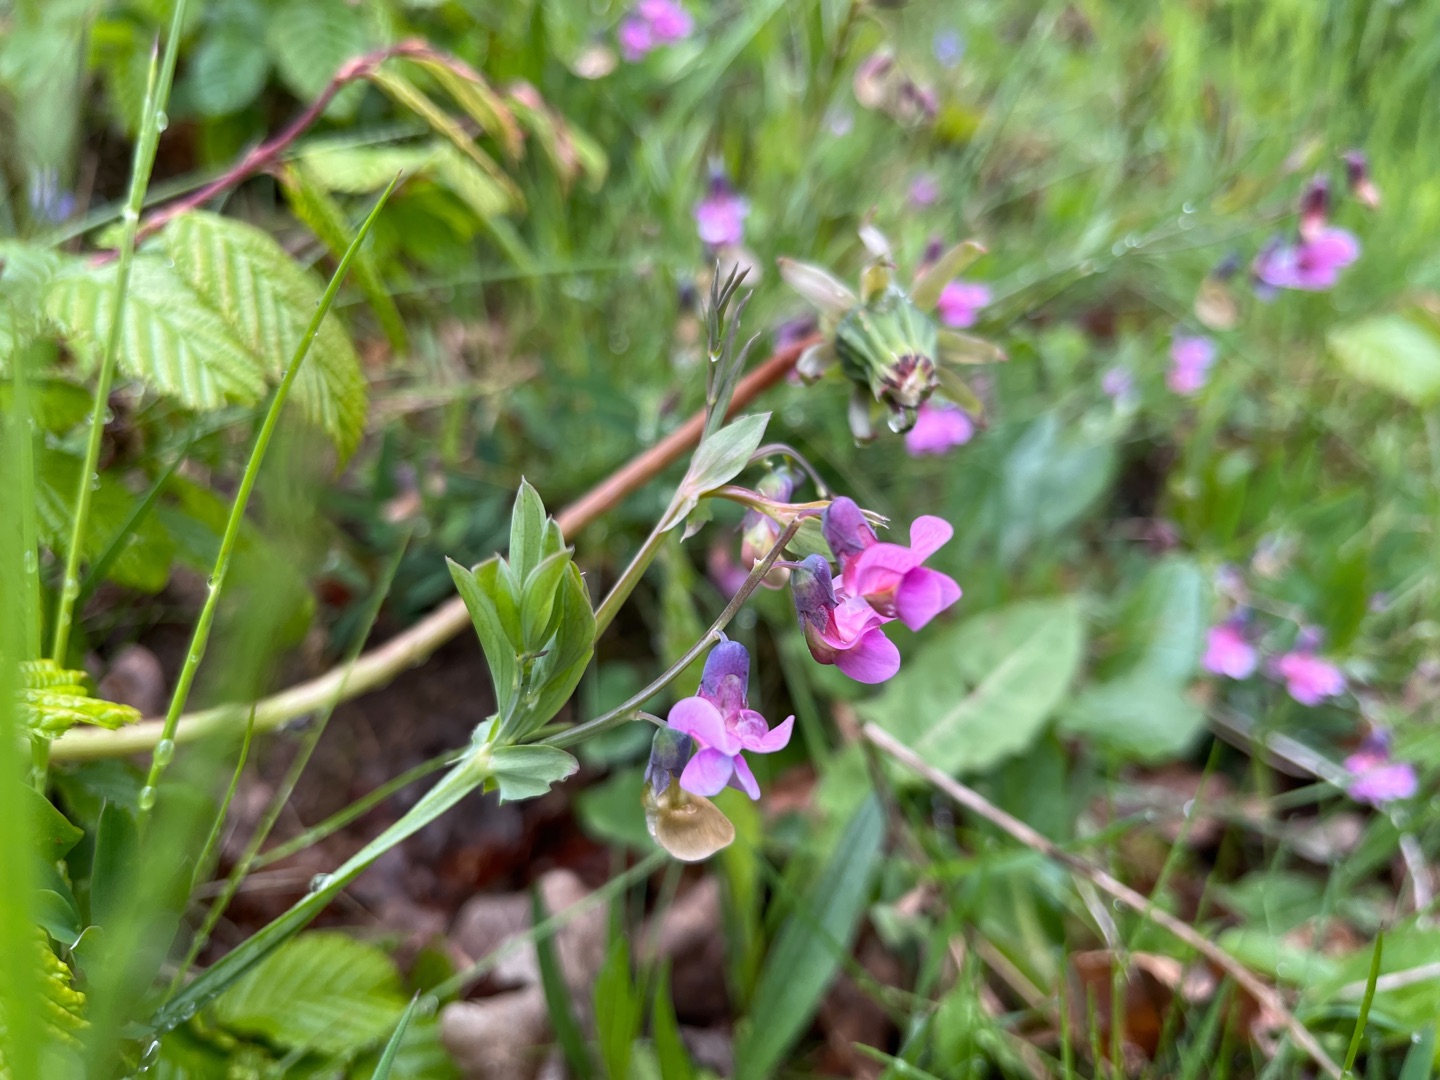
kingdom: Plantae
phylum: Tracheophyta
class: Magnoliopsida
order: Fabales
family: Fabaceae
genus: Lathyrus
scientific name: Lathyrus linifolius
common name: Krat-fladbælg
